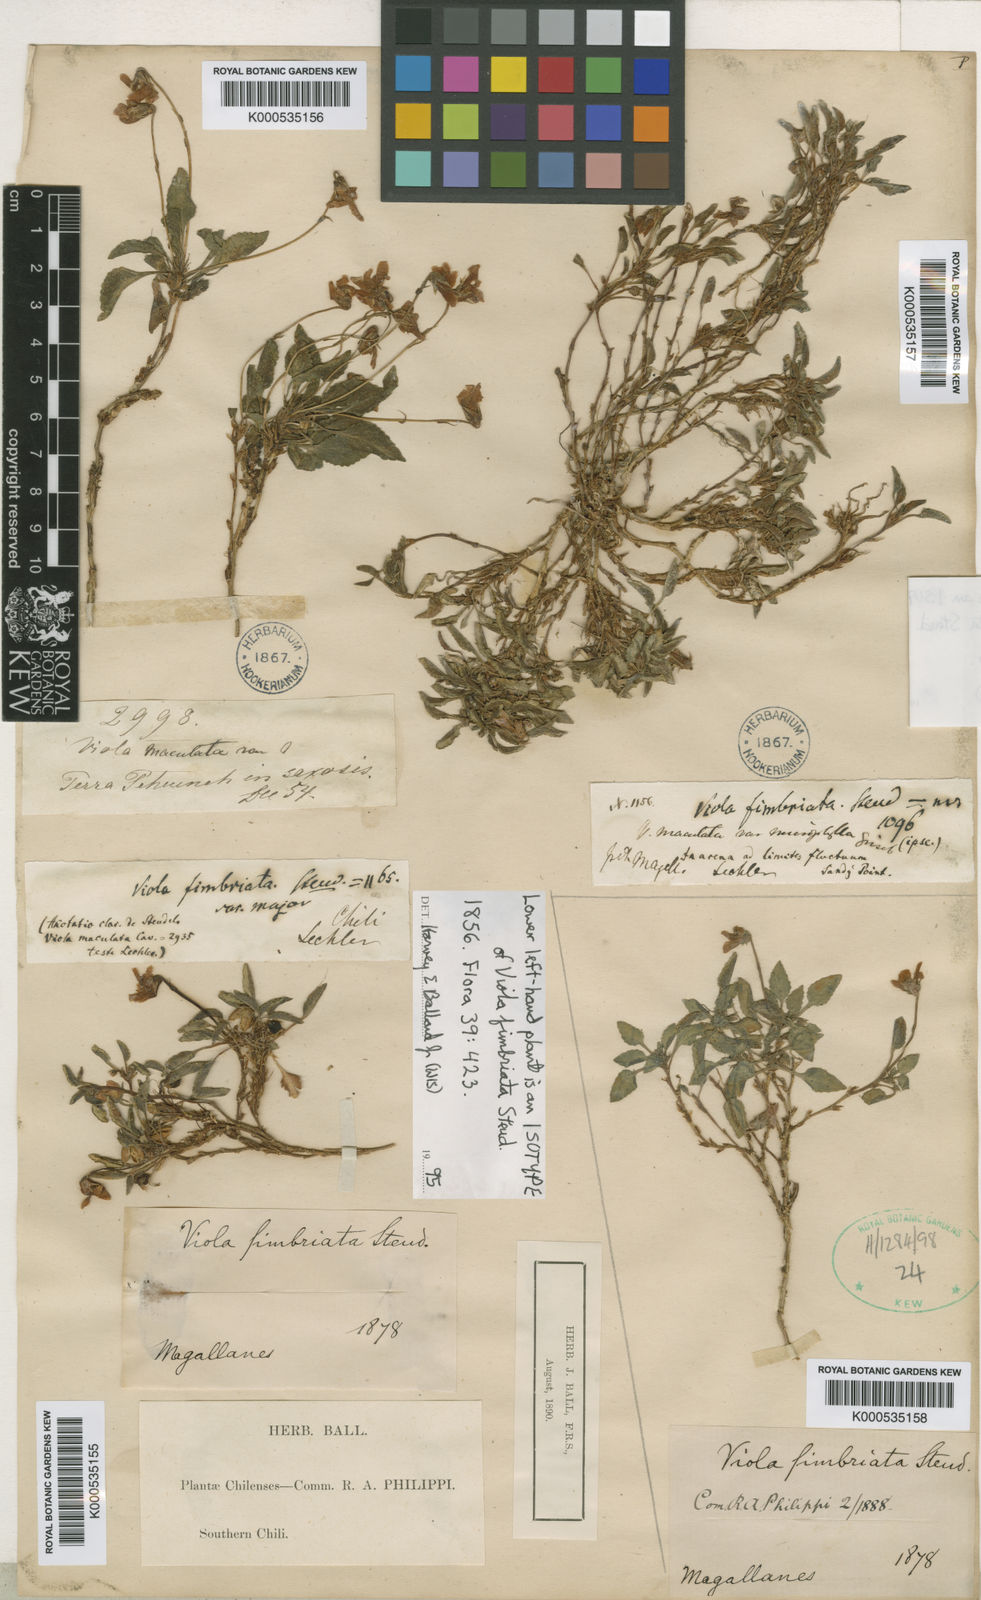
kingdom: Plantae
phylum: Tracheophyta
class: Magnoliopsida
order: Malpighiales
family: Violaceae
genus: Viola
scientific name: Viola maculata
